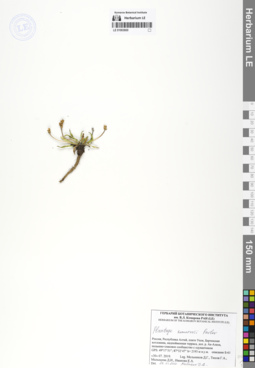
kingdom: Plantae
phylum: Tracheophyta
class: Magnoliopsida
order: Lamiales
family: Plantaginaceae
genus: Plantago
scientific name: Plantago komarovii
